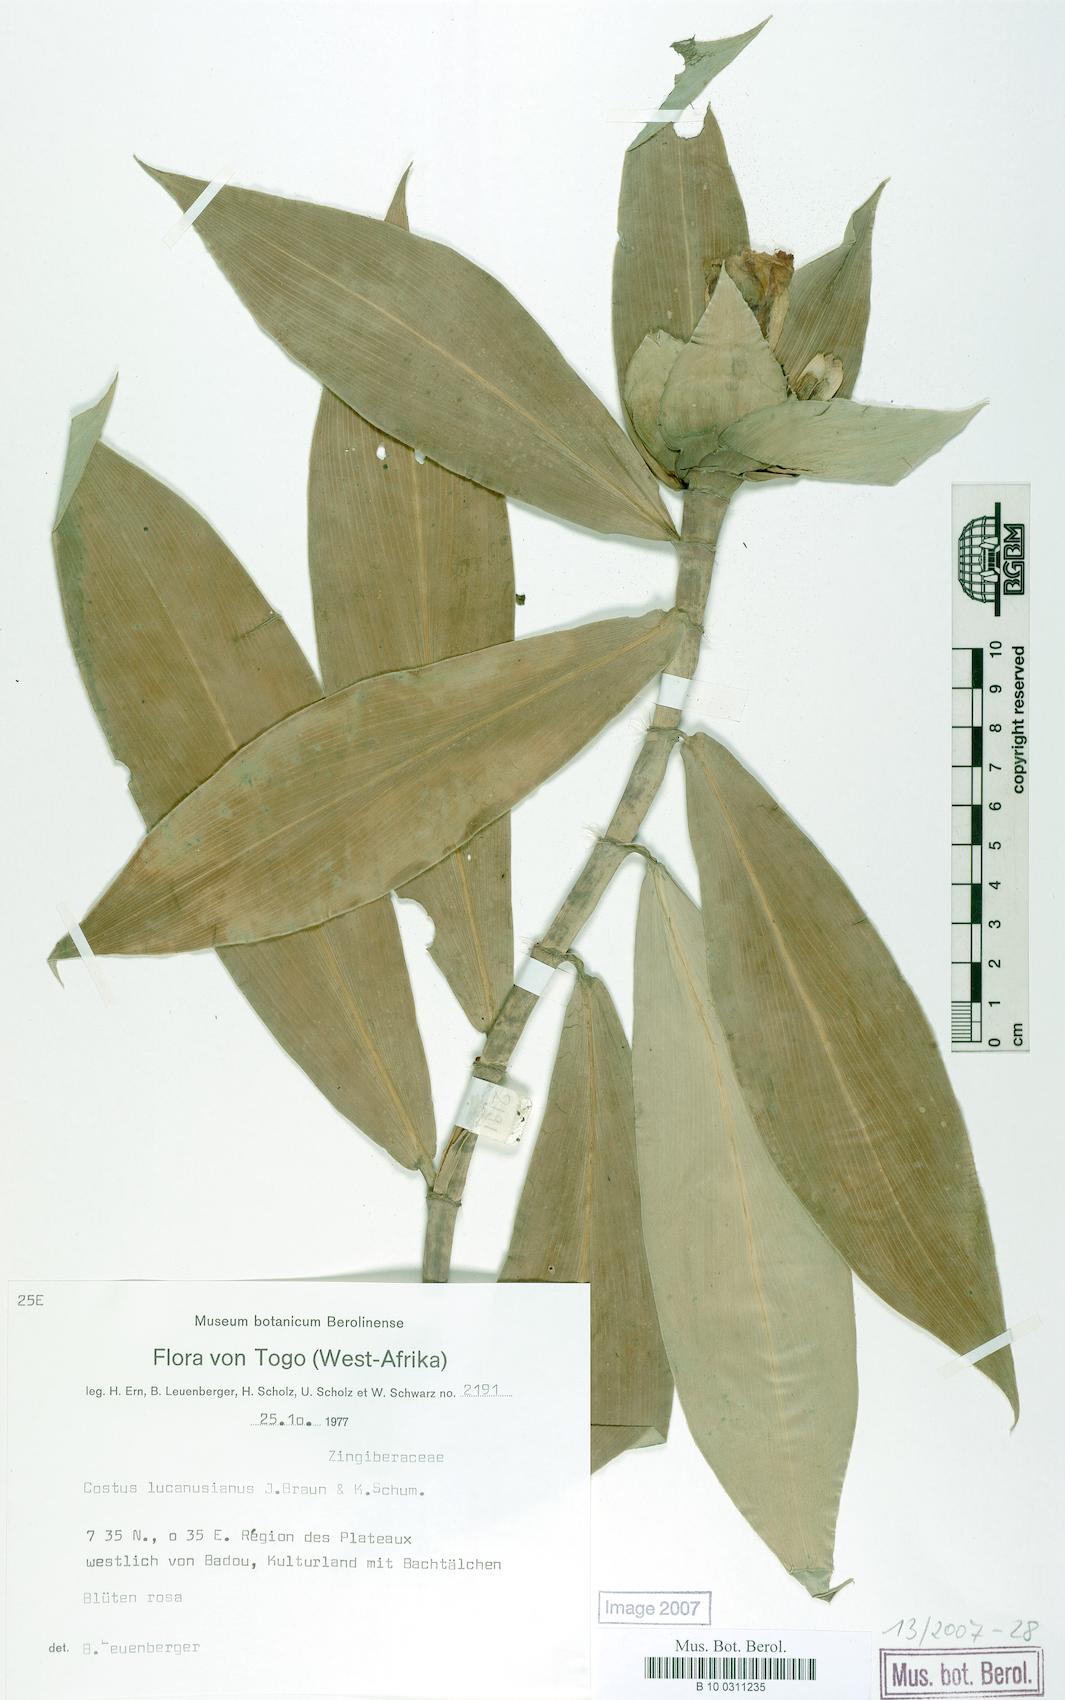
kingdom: Plantae
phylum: Tracheophyta
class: Liliopsida
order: Zingiberales
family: Costaceae
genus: Costus
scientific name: Costus lucanusianus
